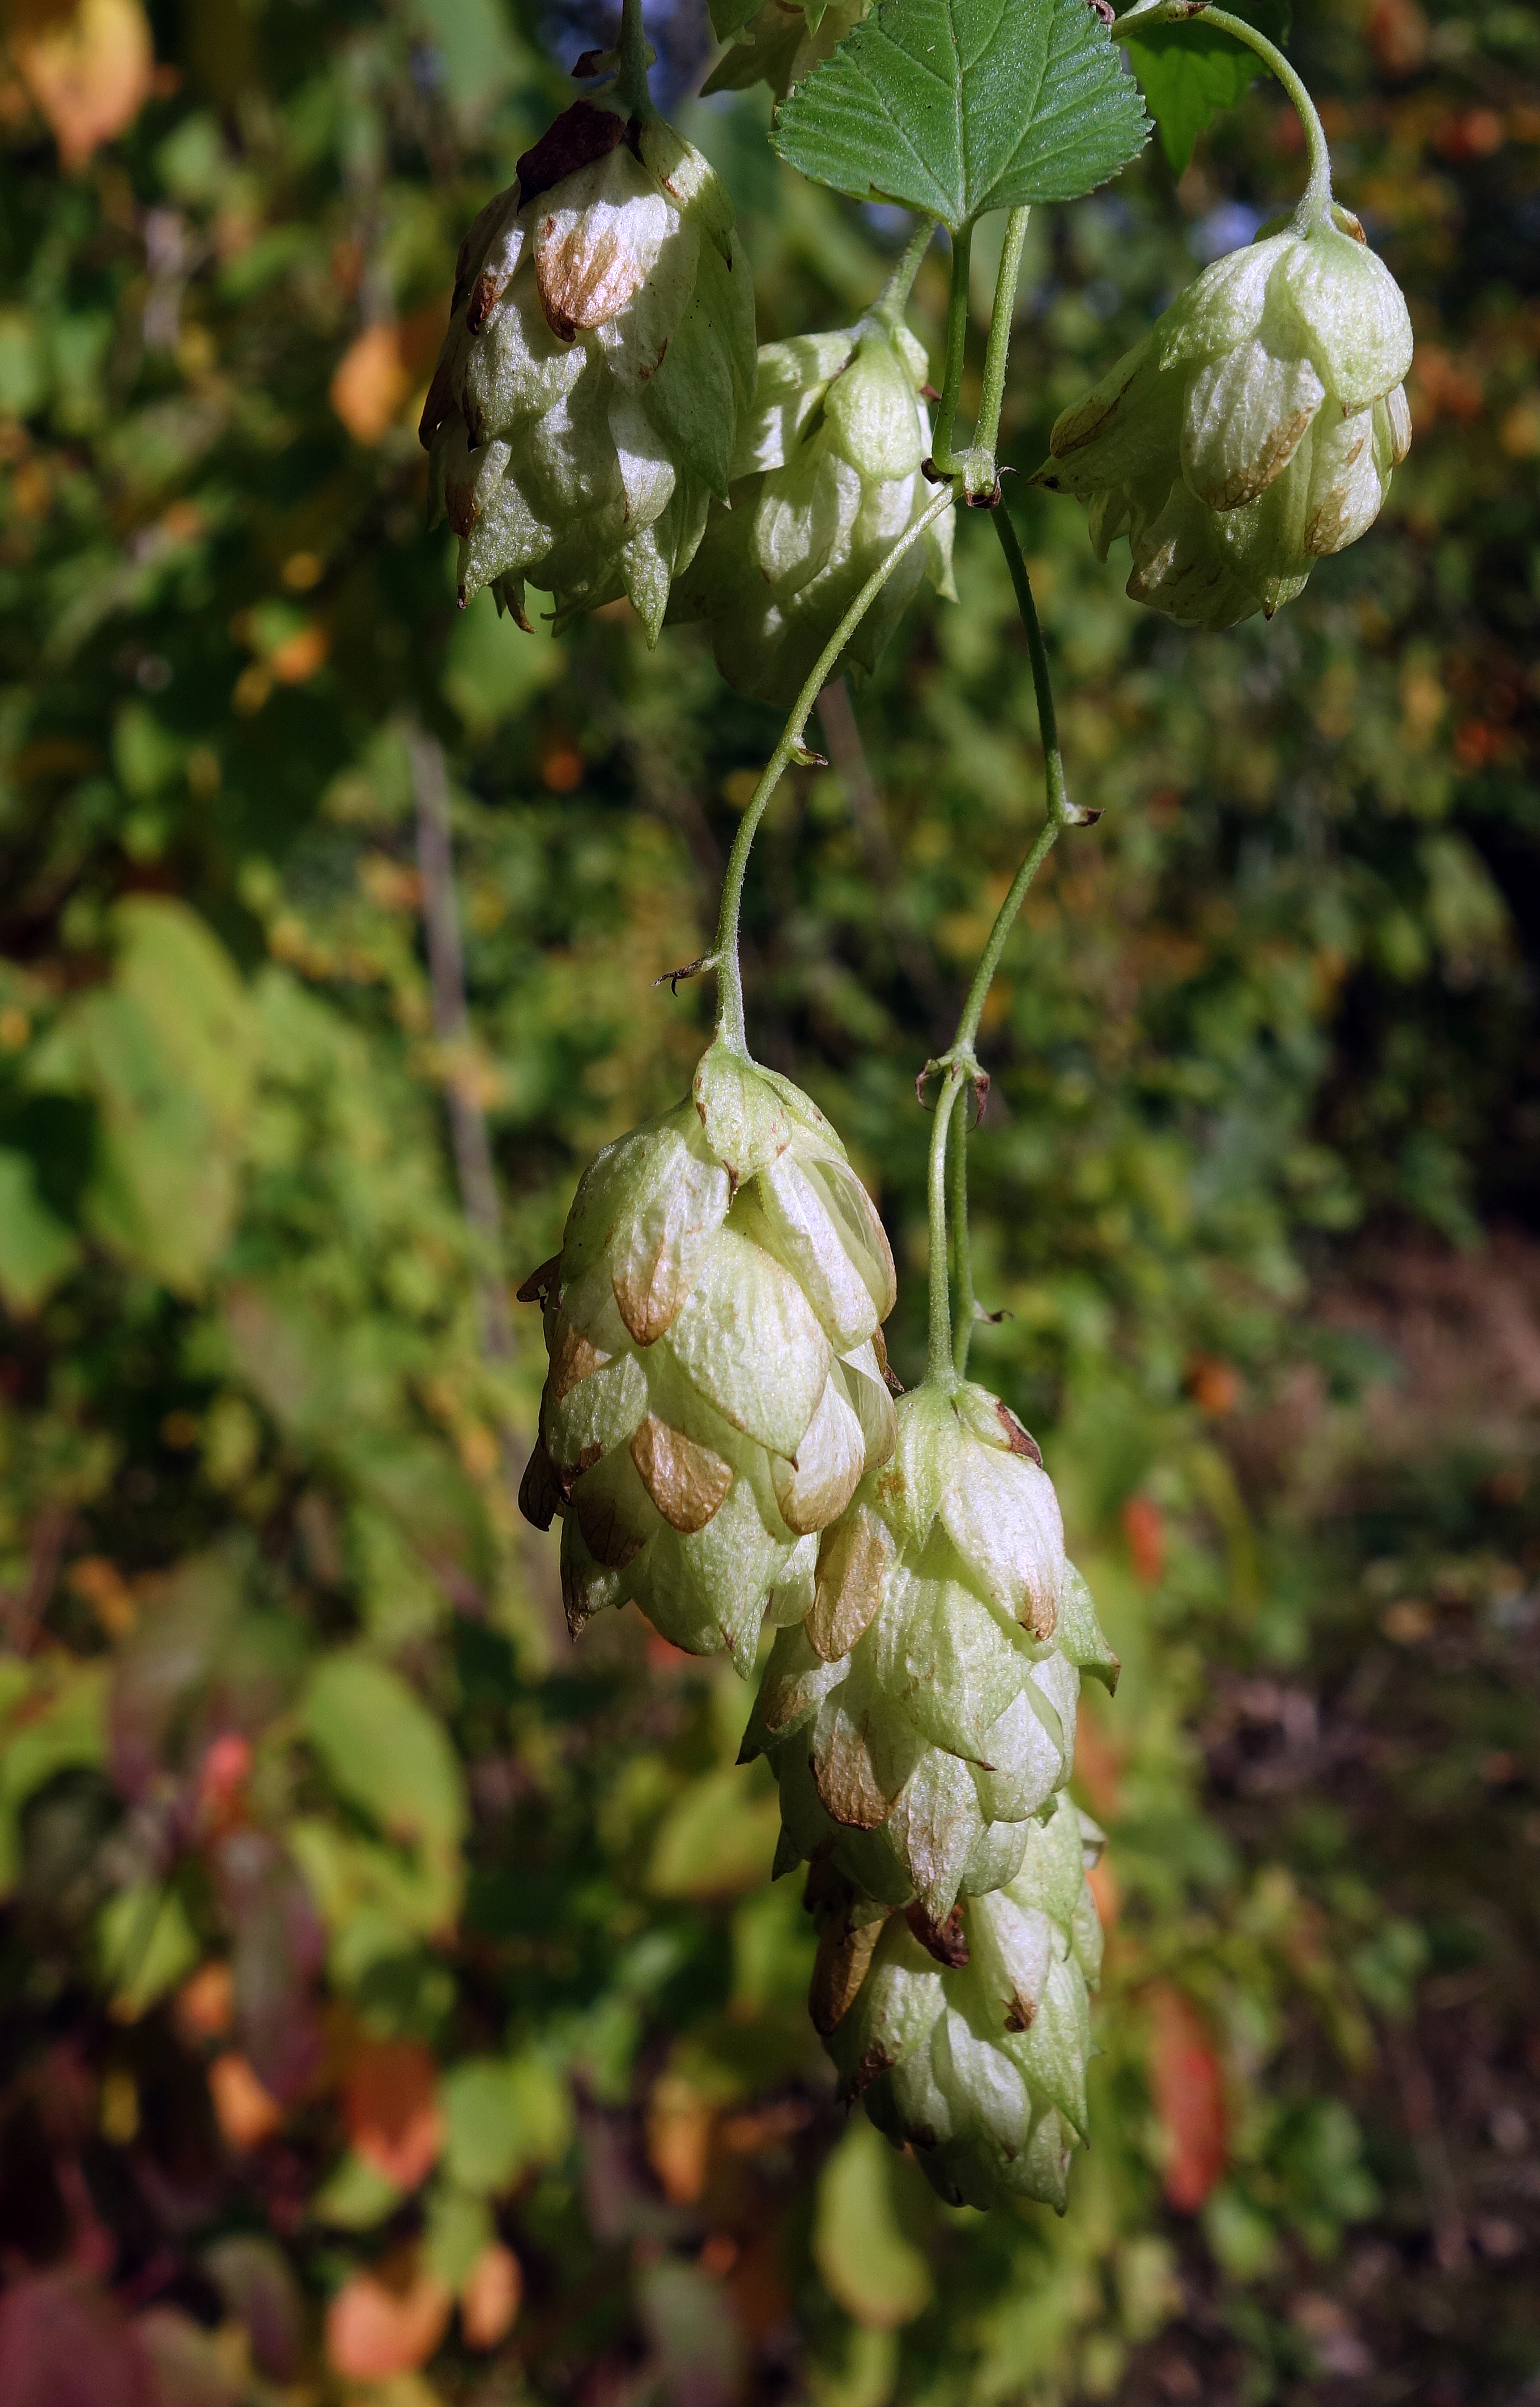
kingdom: Plantae
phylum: Tracheophyta
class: Magnoliopsida
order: Rosales
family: Cannabaceae
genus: Humulus
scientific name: Humulus lupulus
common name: Humle
